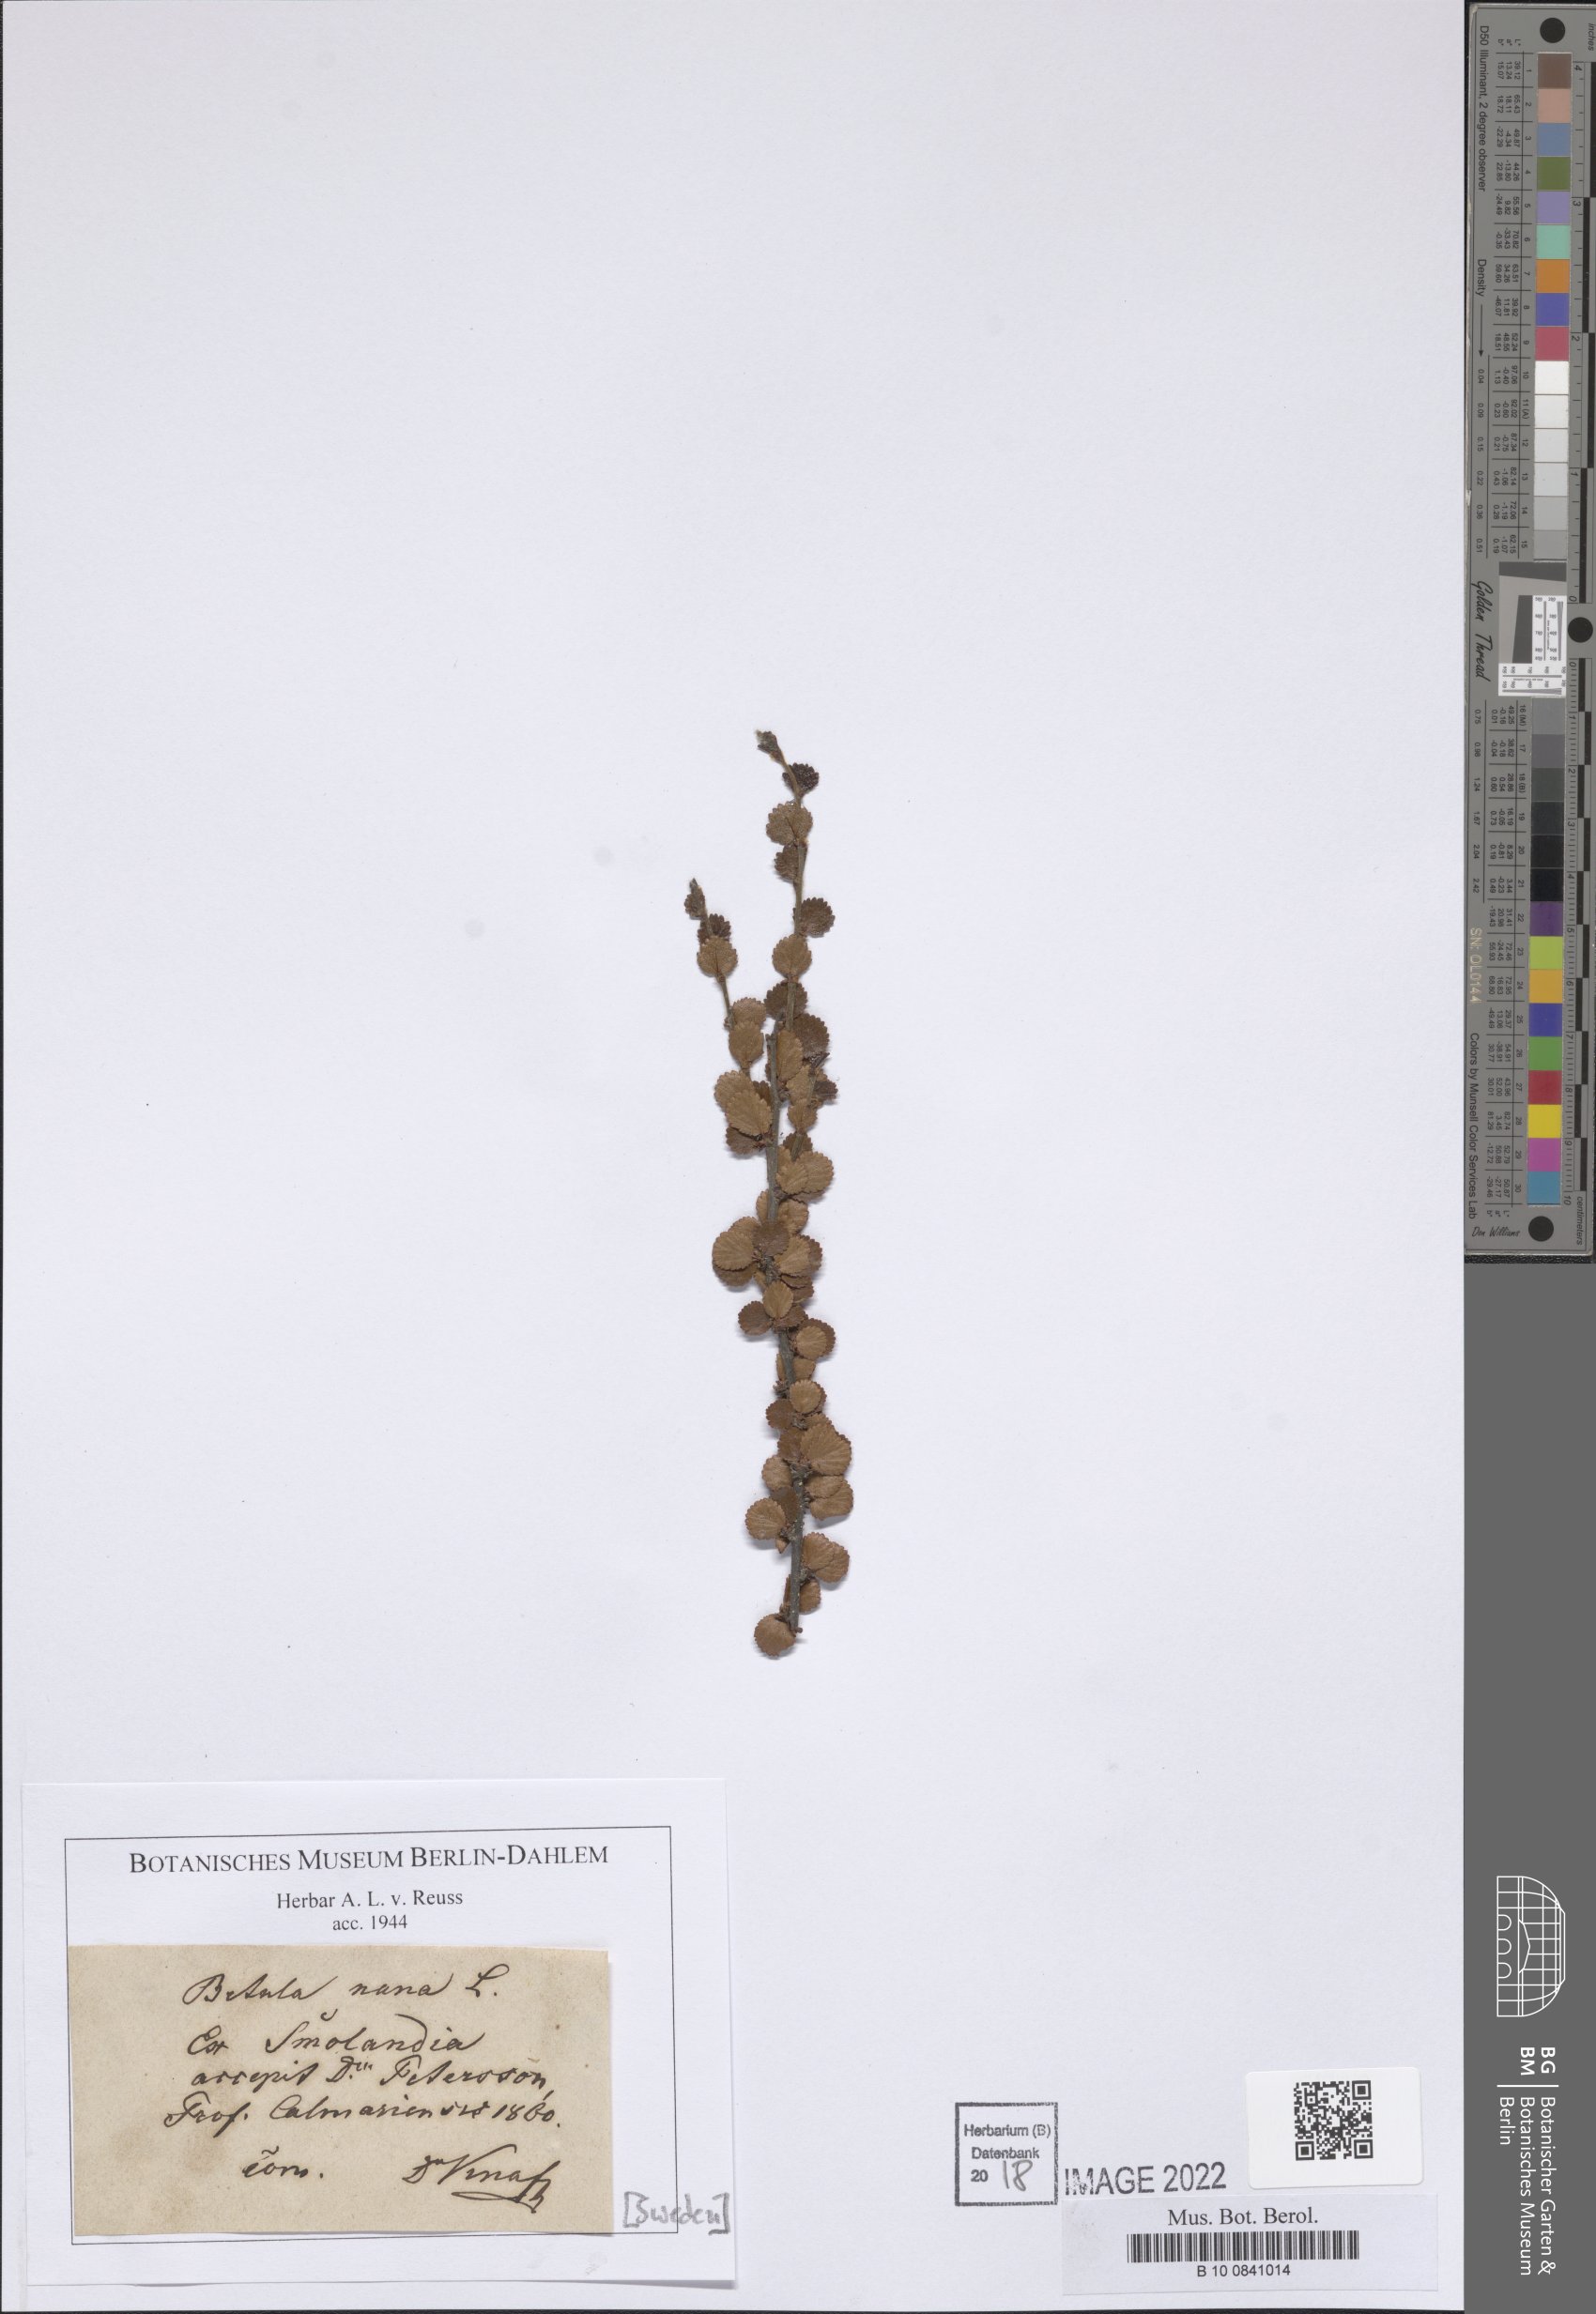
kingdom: Plantae
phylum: Tracheophyta
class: Magnoliopsida
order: Fagales
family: Betulaceae
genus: Betula
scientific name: Betula nana
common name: Arctic dwarf birch
